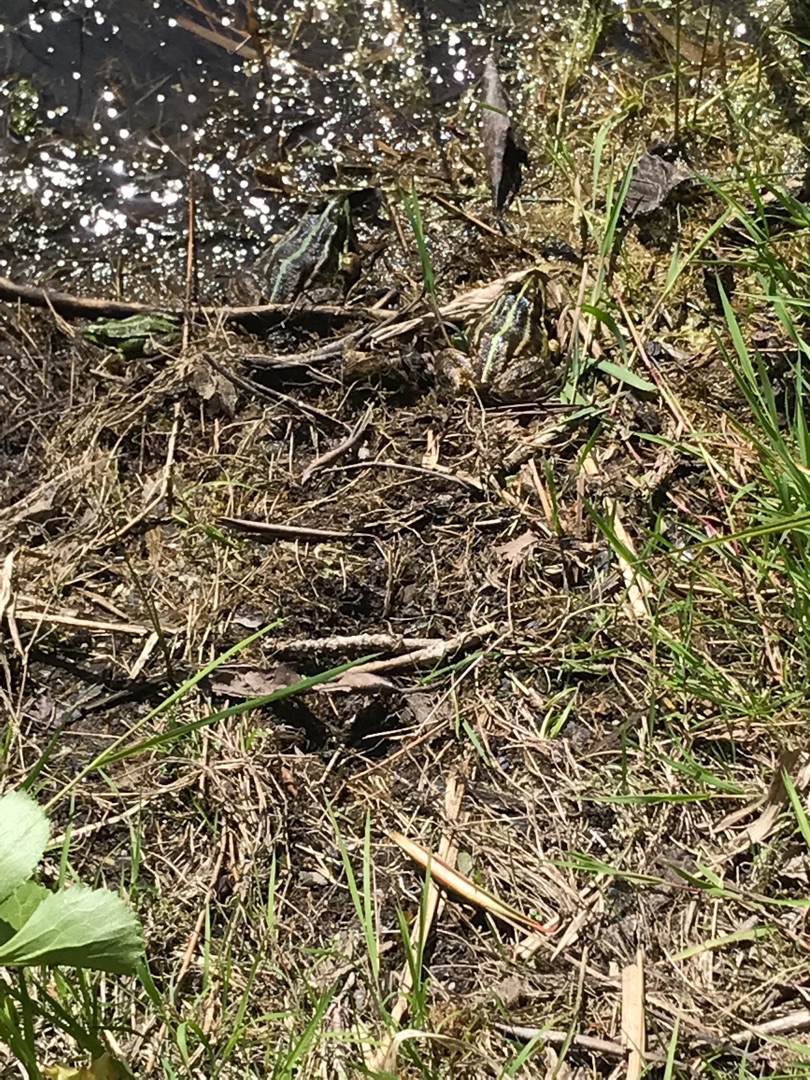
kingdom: Animalia
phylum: Chordata
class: Amphibia
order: Anura
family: Ranidae
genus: Pelophylax
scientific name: Pelophylax lessonae
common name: Grøn frø
